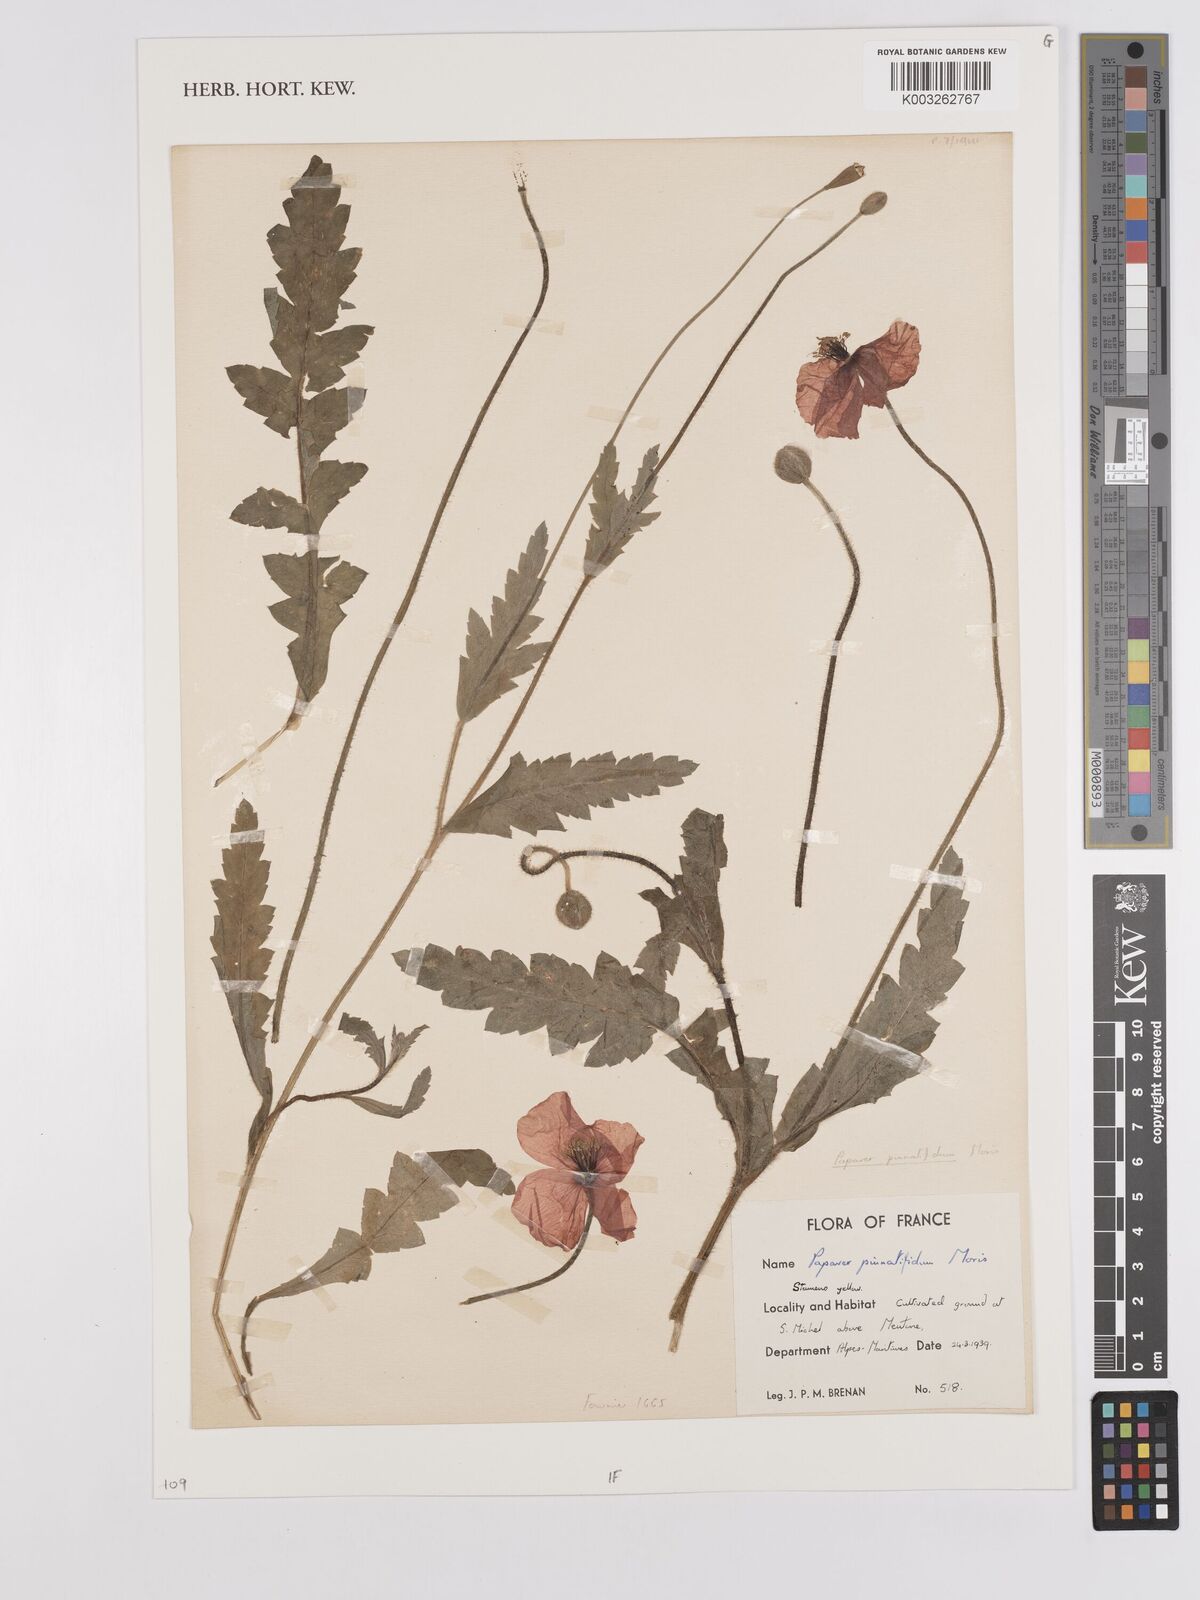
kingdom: Plantae
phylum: Tracheophyta
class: Magnoliopsida
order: Ranunculales
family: Papaveraceae
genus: Papaver
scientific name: Papaver pinnatifidum
